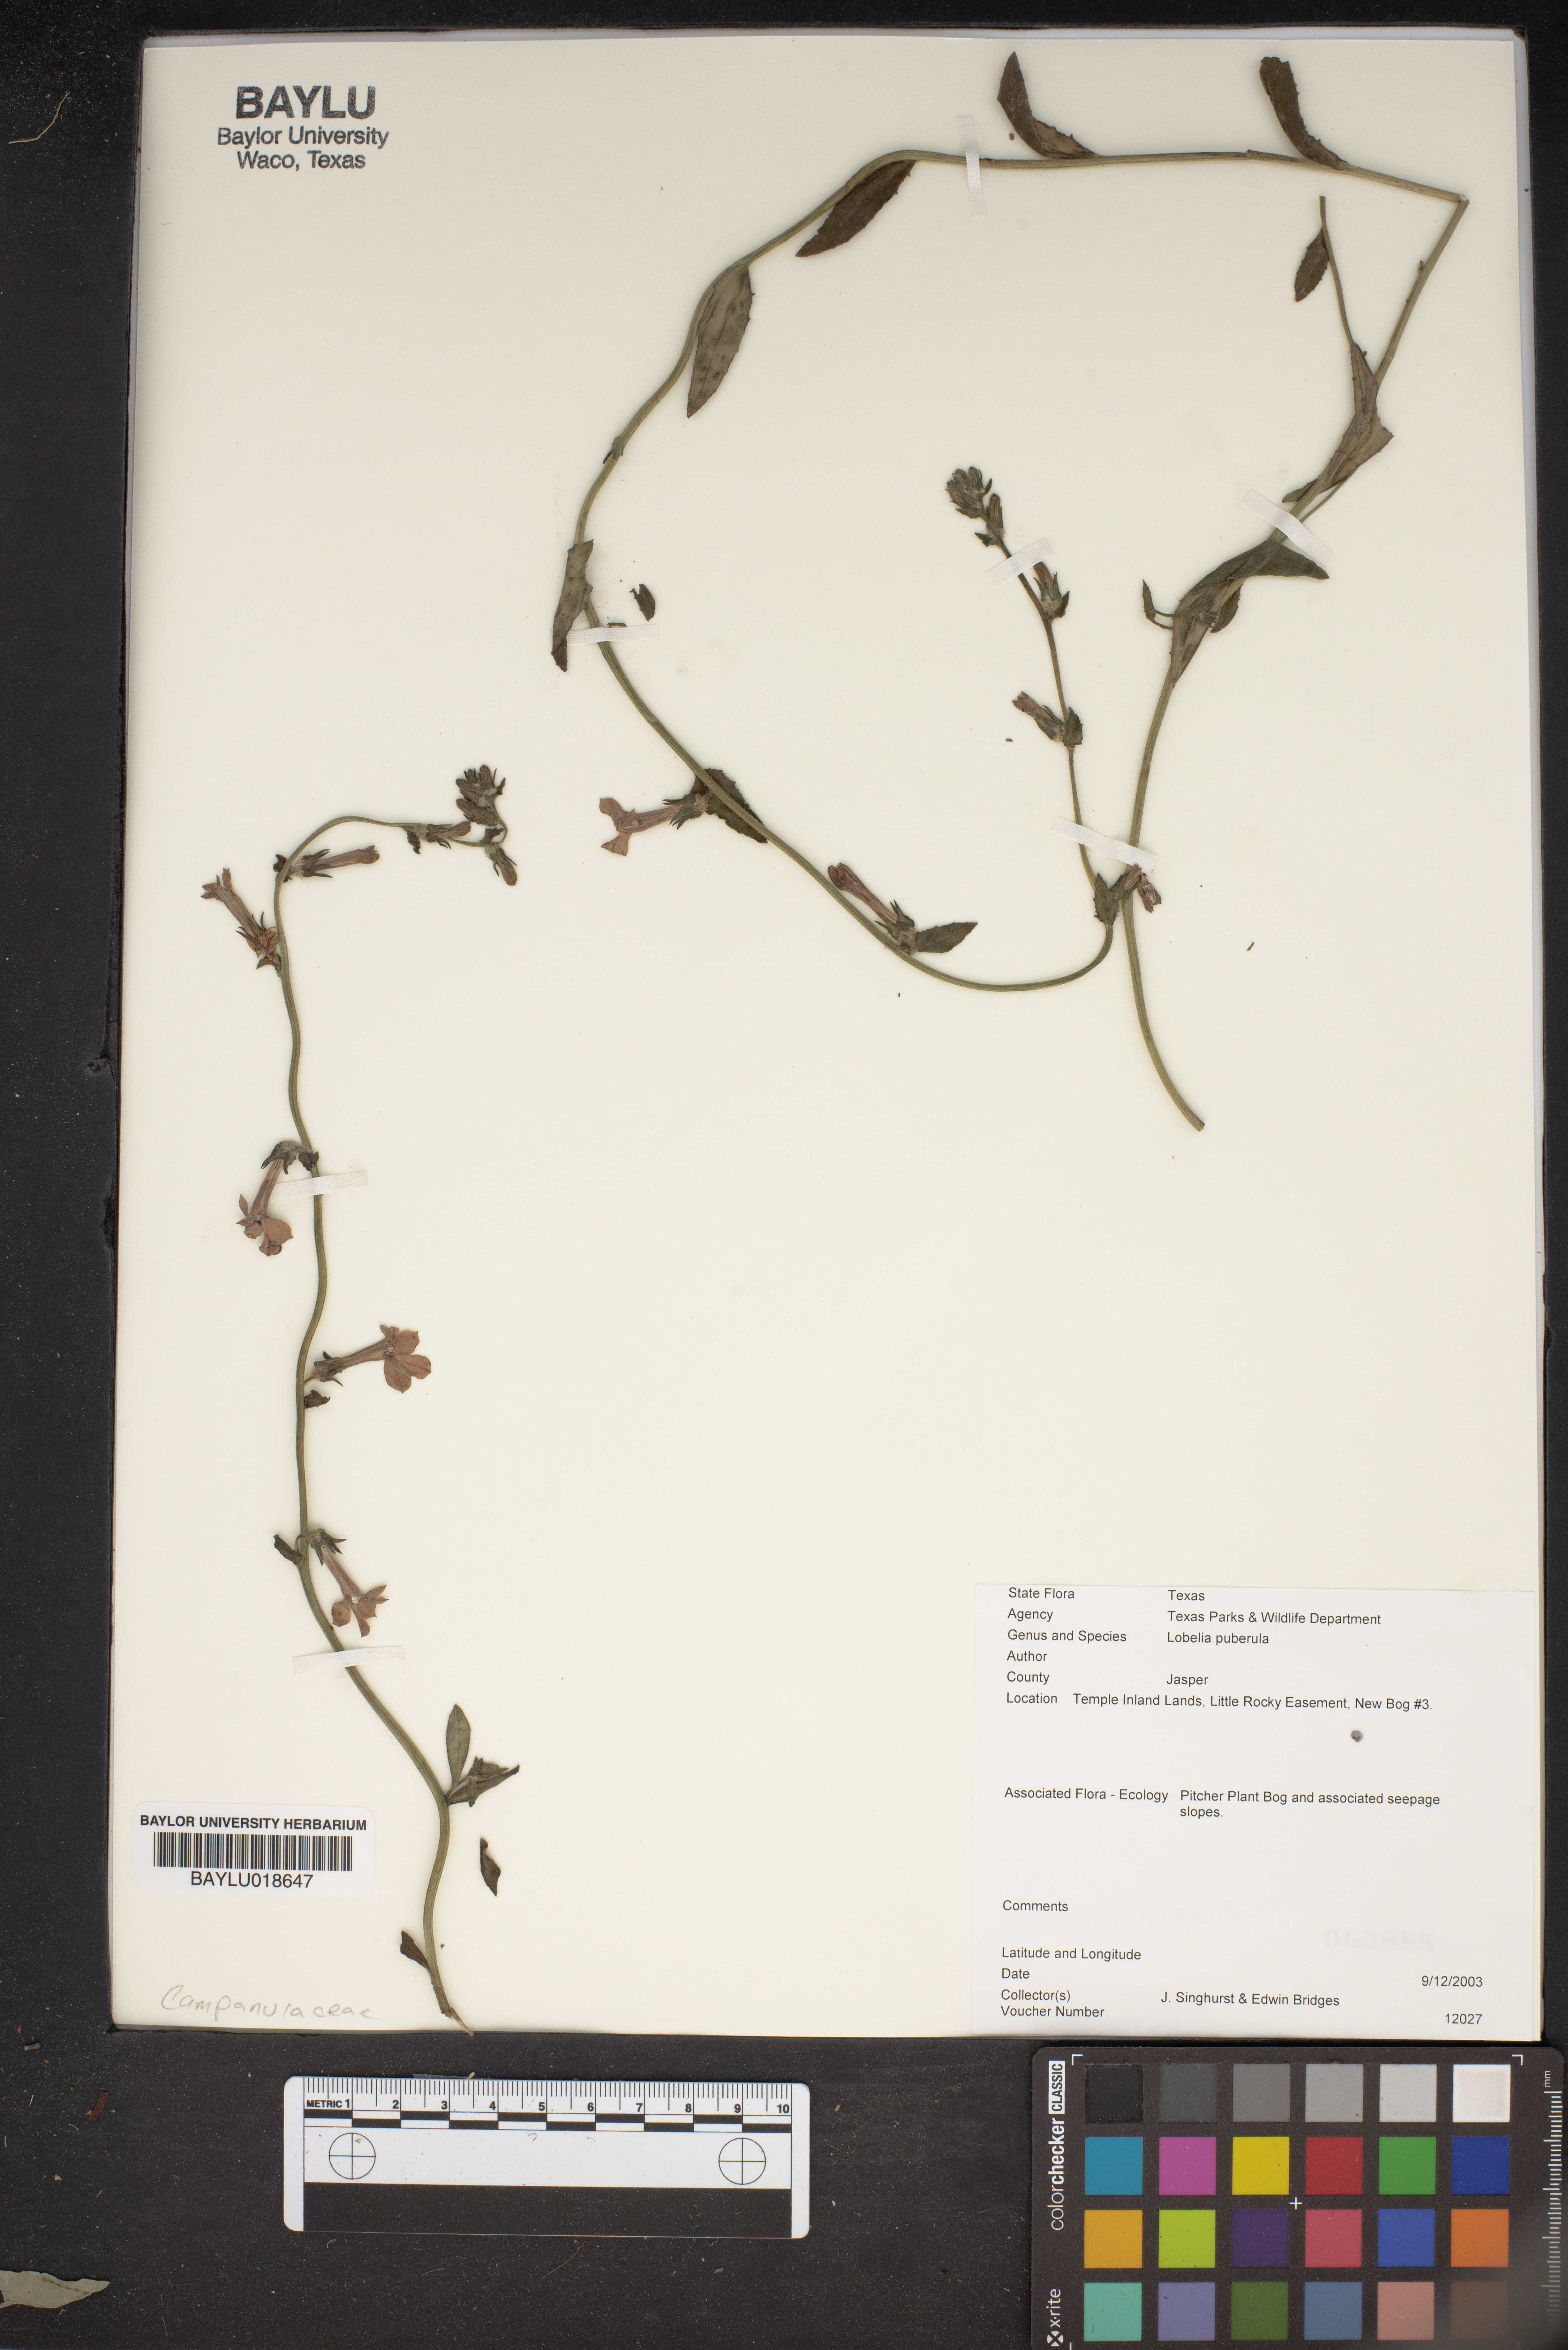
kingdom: Plantae
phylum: Tracheophyta
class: Magnoliopsida
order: Asterales
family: Campanulaceae
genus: Lobelia
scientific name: Lobelia puberula
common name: Purple dewdrop
